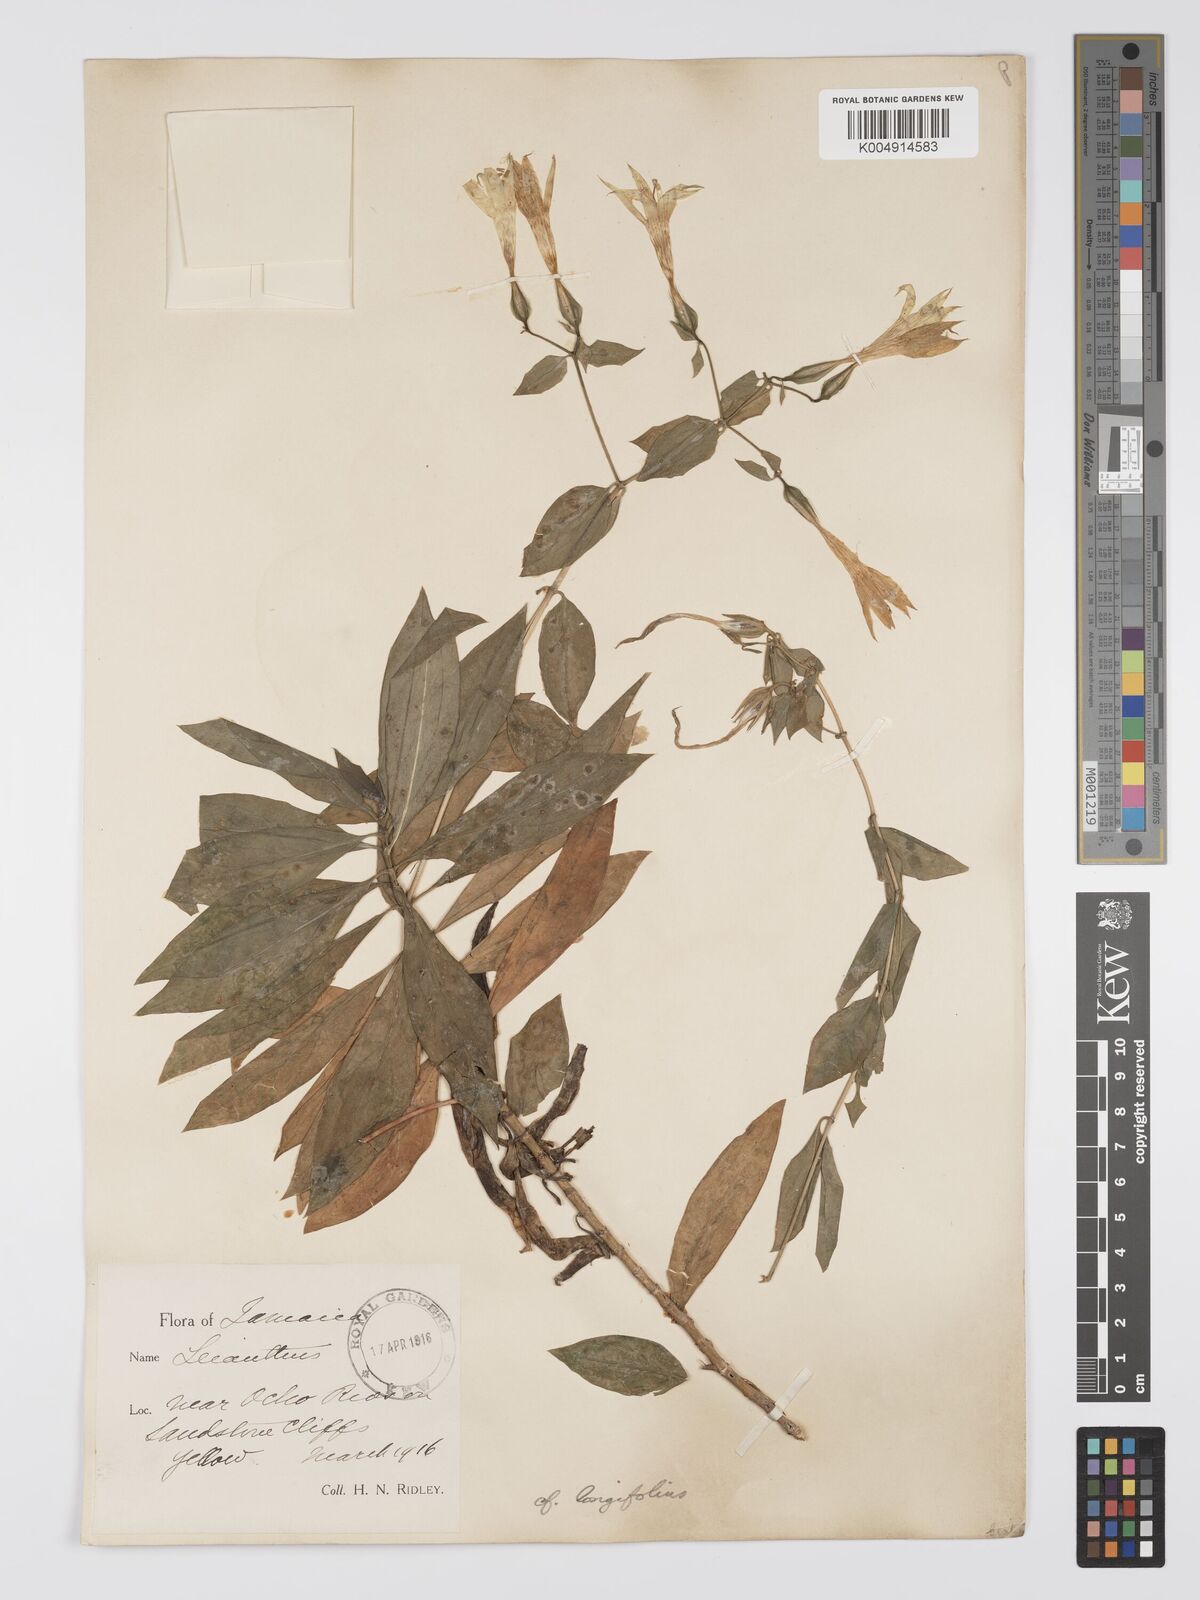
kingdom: Plantae
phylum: Tracheophyta
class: Magnoliopsida
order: Gentianales
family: Gentianaceae
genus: Lisianthus
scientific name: Lisianthus longifolius
